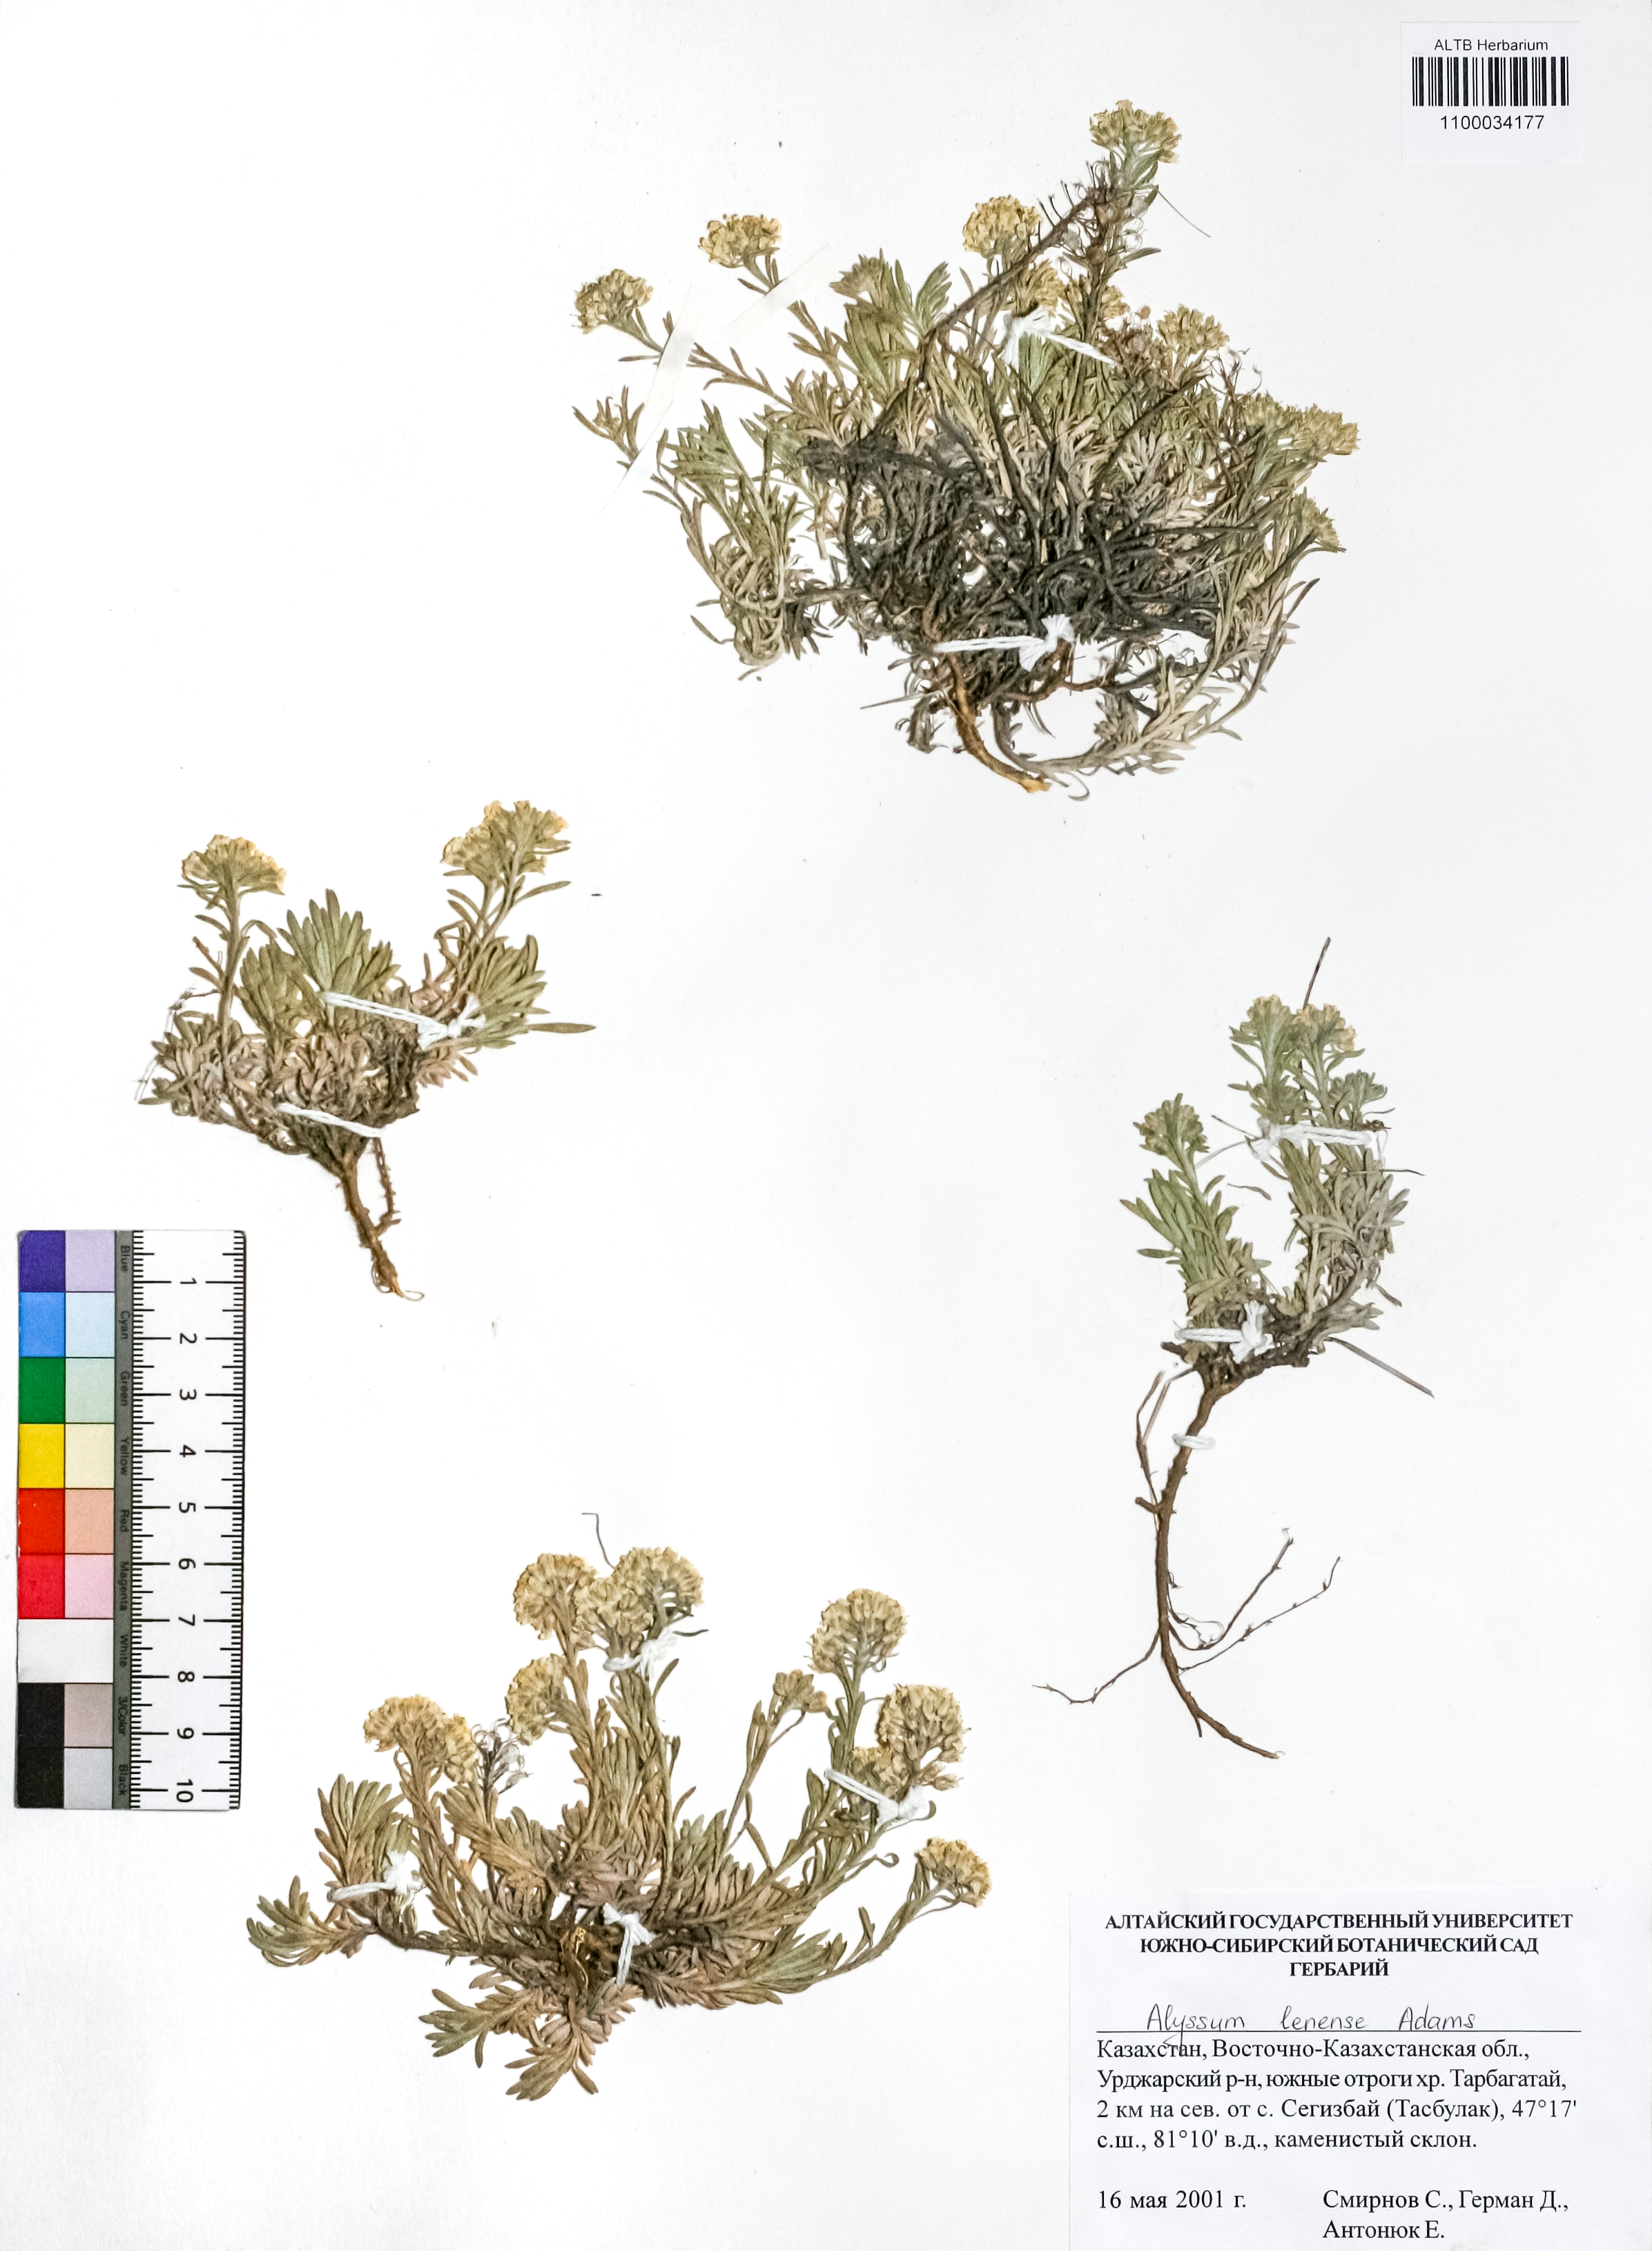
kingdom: Plantae
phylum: Tracheophyta
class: Magnoliopsida
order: Brassicales
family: Brassicaceae
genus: Alyssum
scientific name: Alyssum lenense
